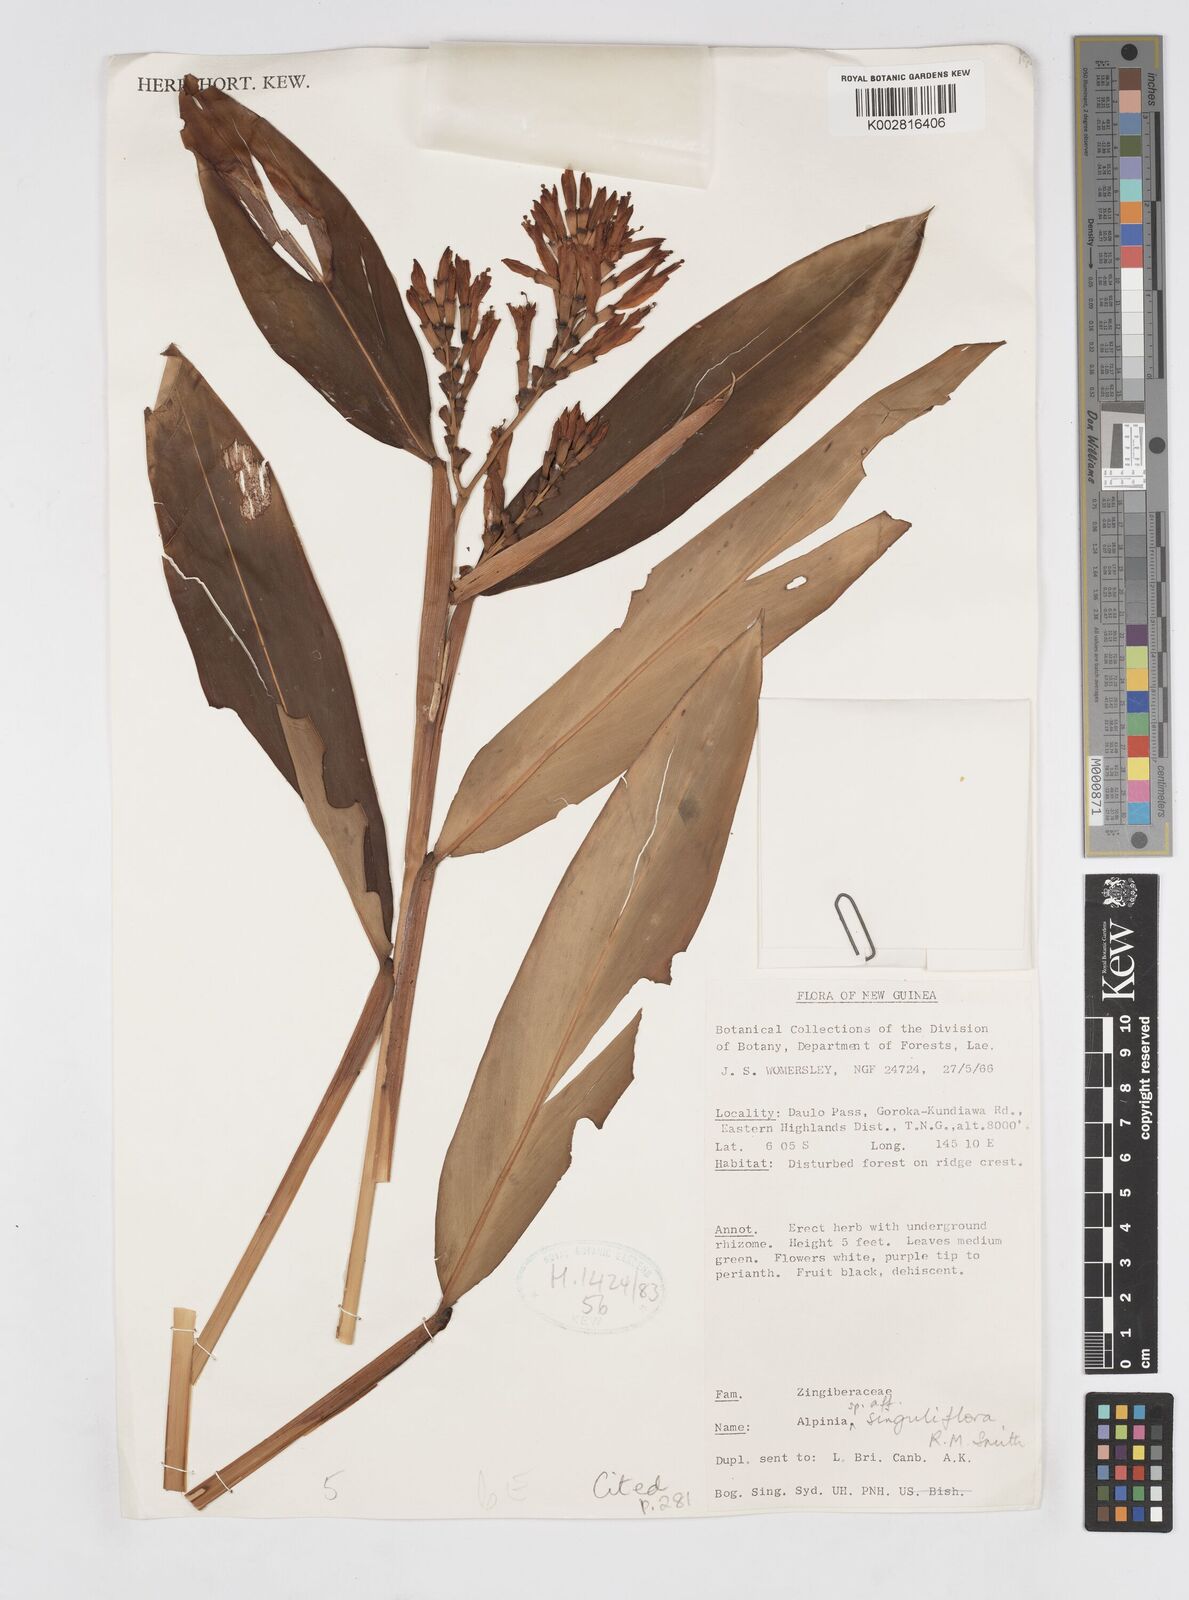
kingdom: Plantae
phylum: Tracheophyta
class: Liliopsida
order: Zingiberales
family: Zingiberaceae
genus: Alpinia
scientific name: Alpinia singuliflora
